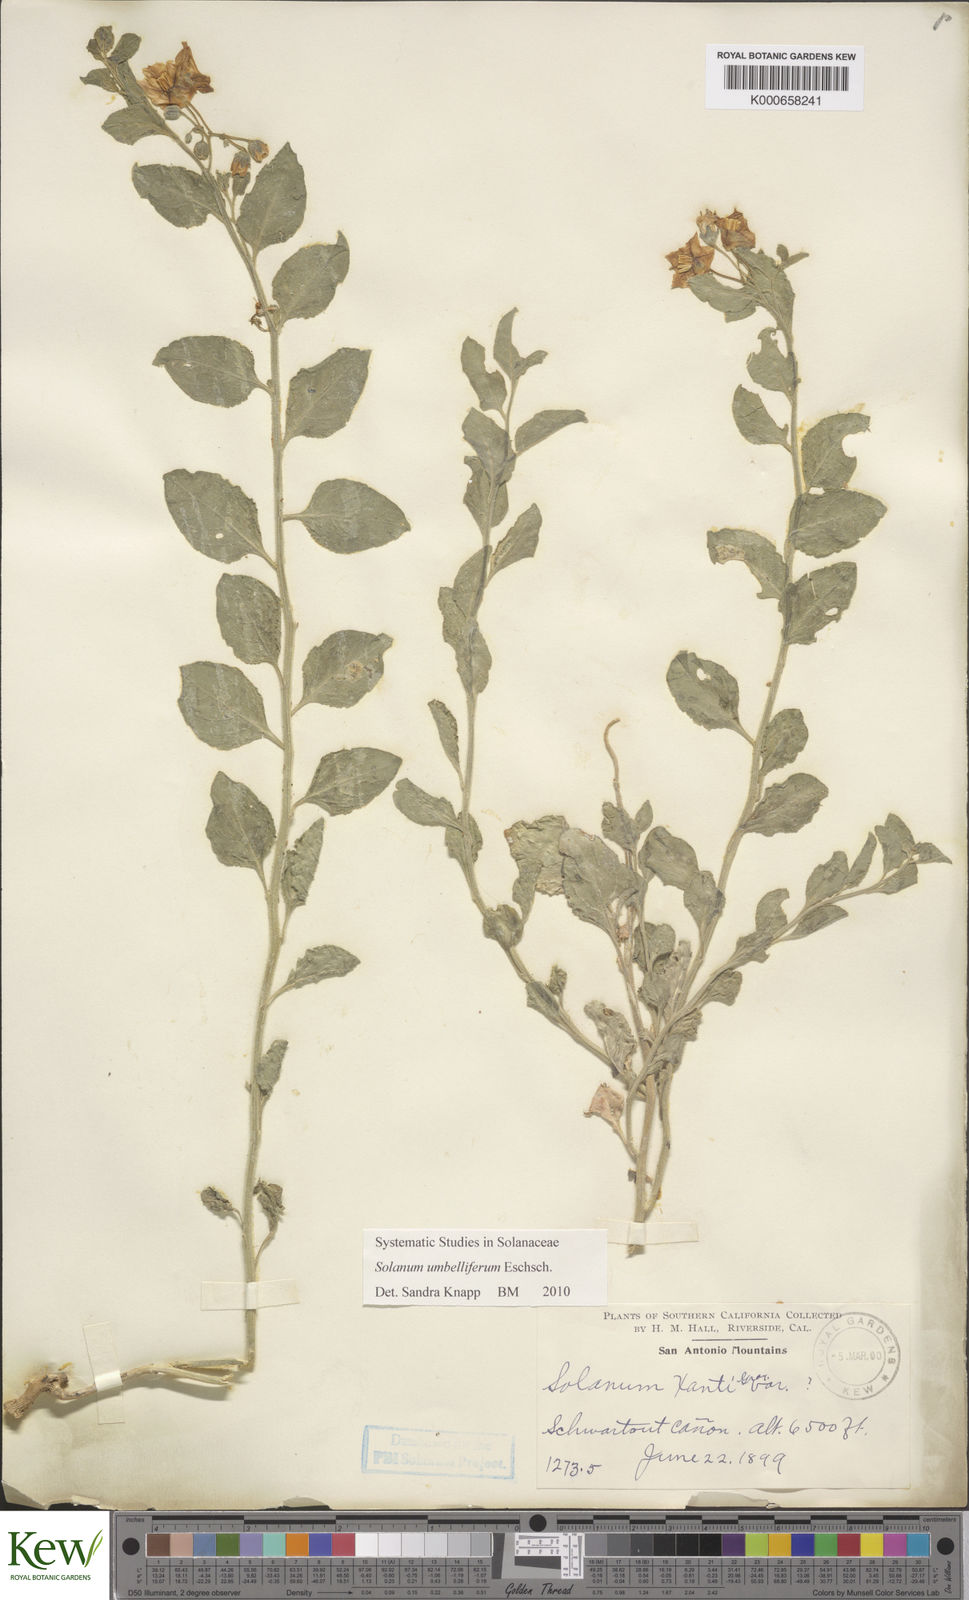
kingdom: Plantae
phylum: Tracheophyta
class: Magnoliopsida
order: Solanales
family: Solanaceae
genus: Solanum
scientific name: Solanum umbelliferum
